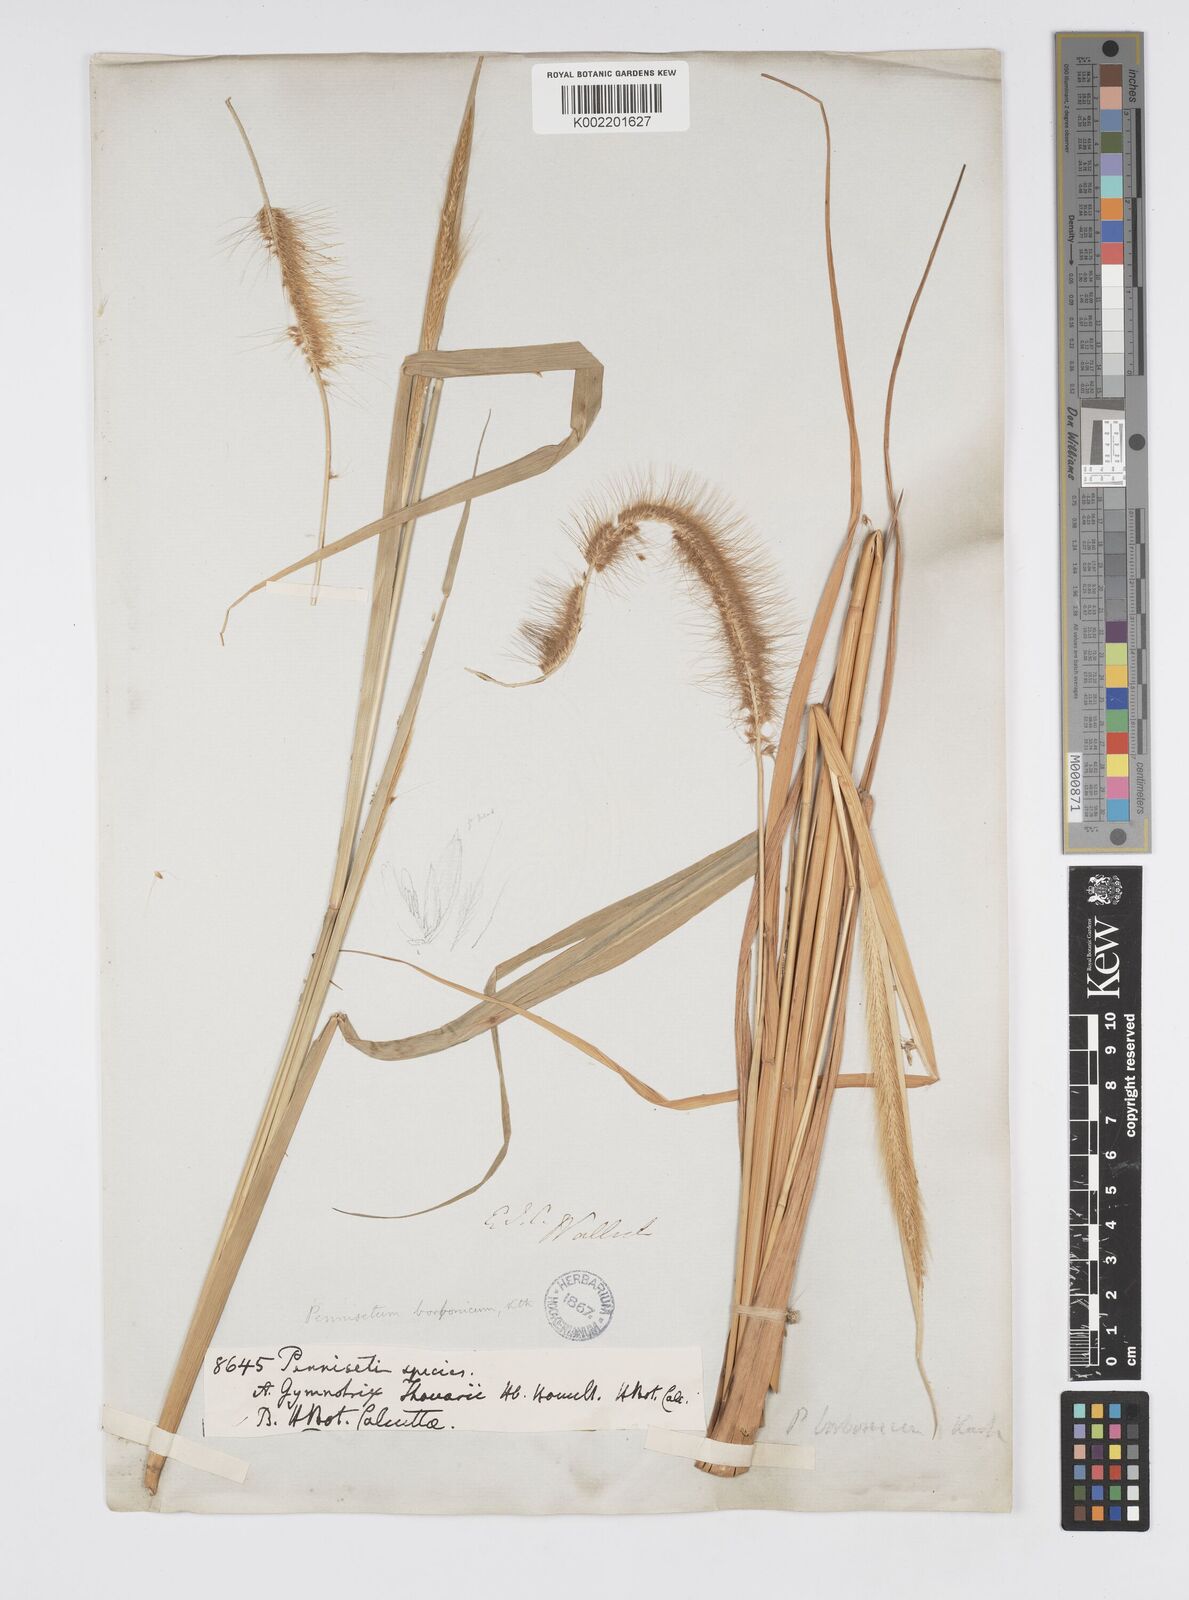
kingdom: Plantae
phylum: Tracheophyta
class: Liliopsida
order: Poales
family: Poaceae
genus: Setaria
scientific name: Setaria parviflora
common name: Knotroot bristle-grass
